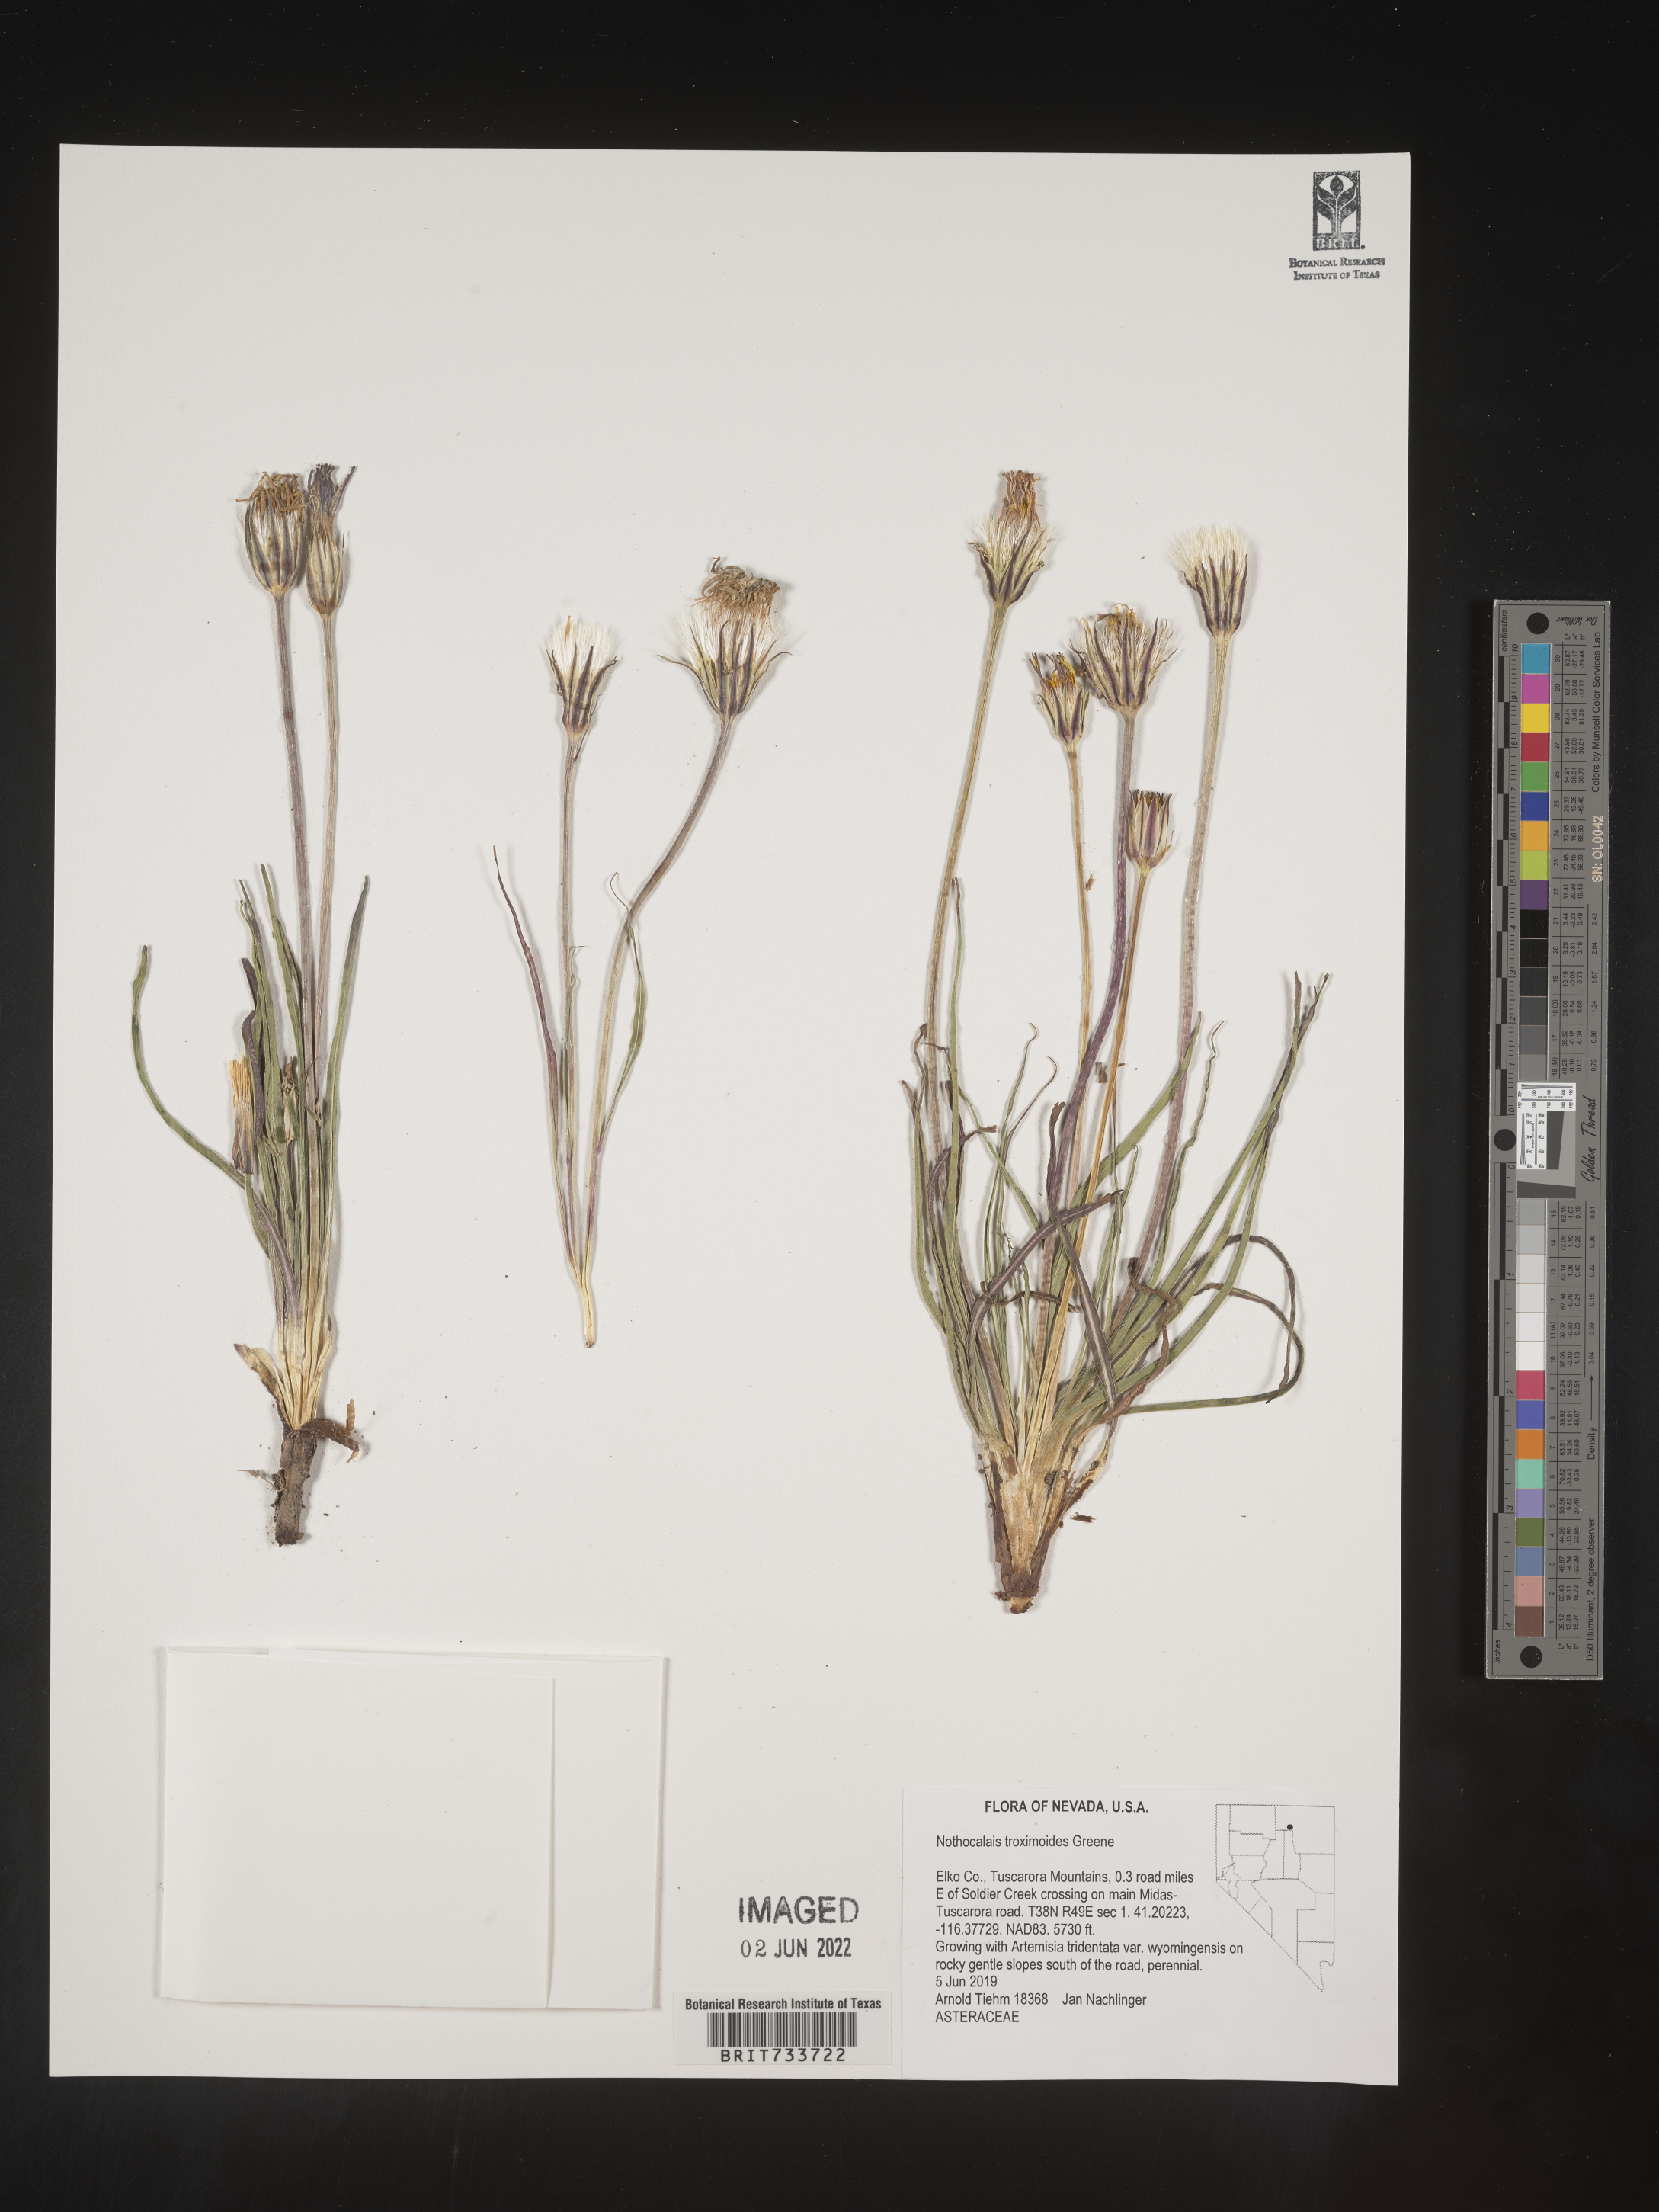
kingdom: Plantae
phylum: Tracheophyta
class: Magnoliopsida
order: Asterales
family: Asteraceae
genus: Microseris
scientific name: Microseris
